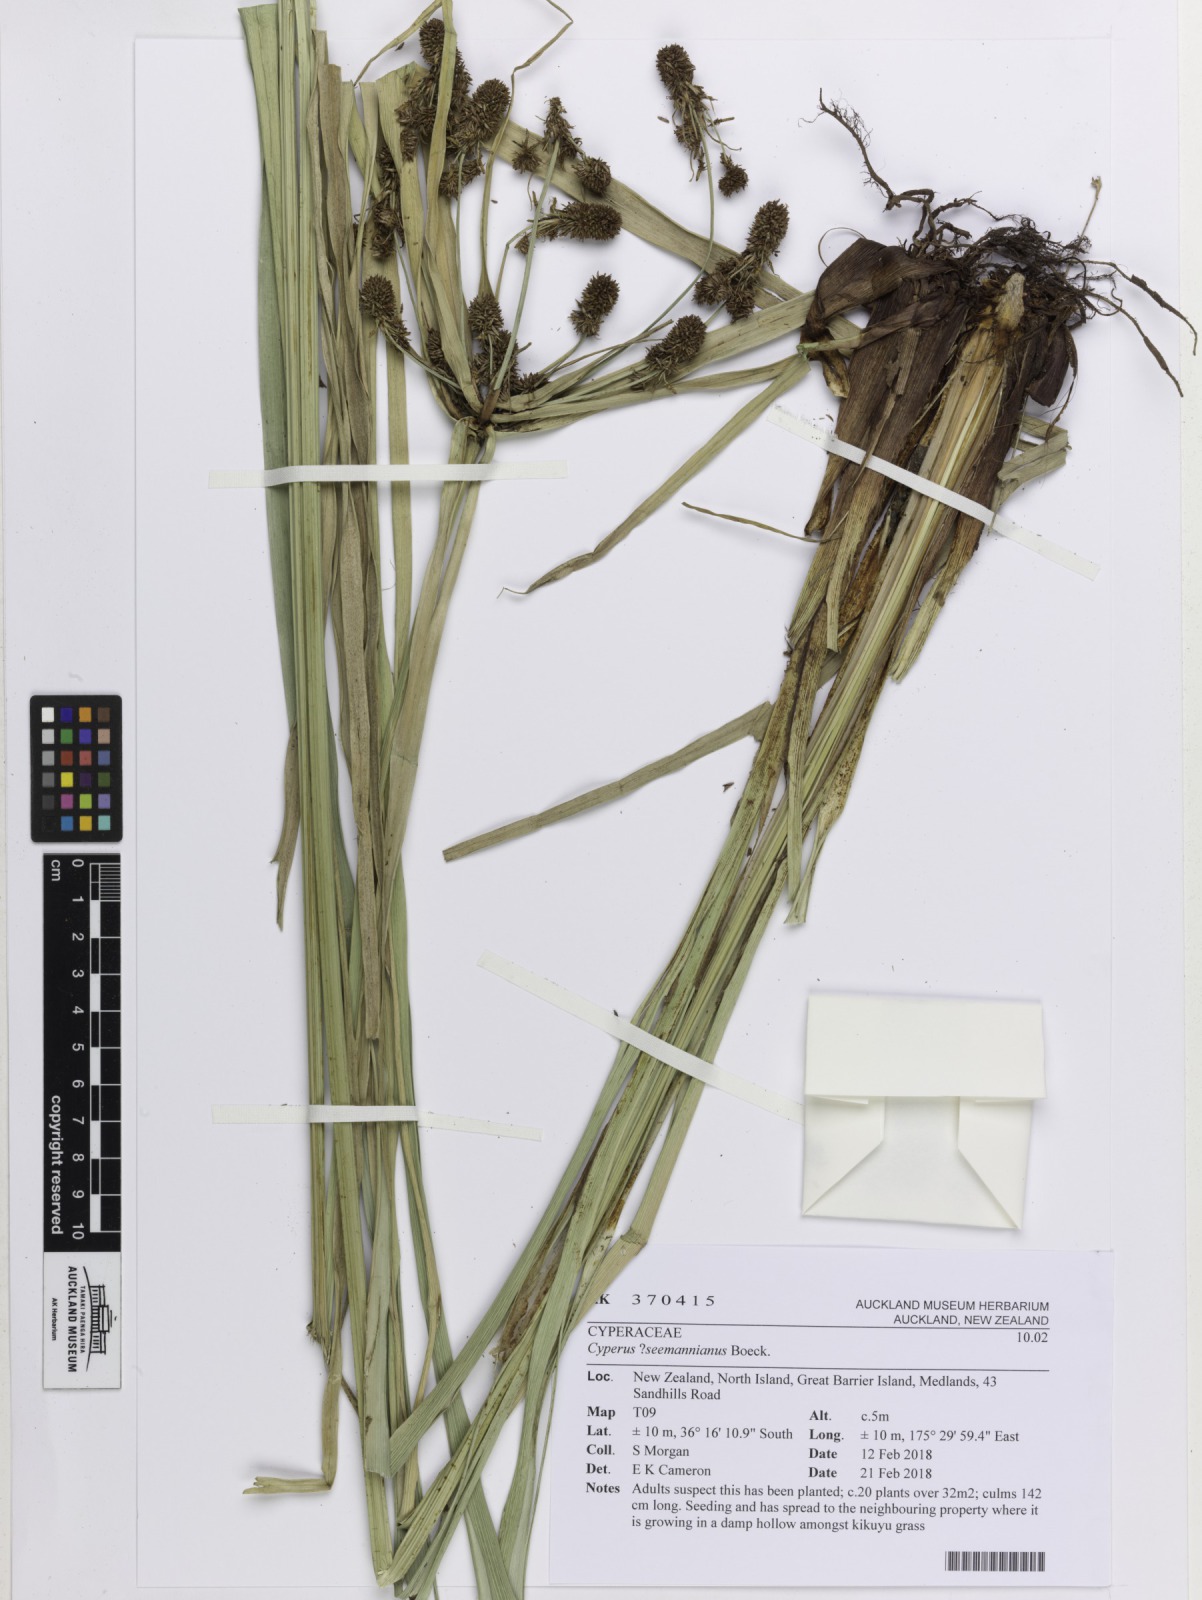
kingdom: Plantae
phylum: Tracheophyta
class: Liliopsida
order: Poales
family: Cyperaceae
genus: Cyperus
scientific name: Cyperus seemannianus
